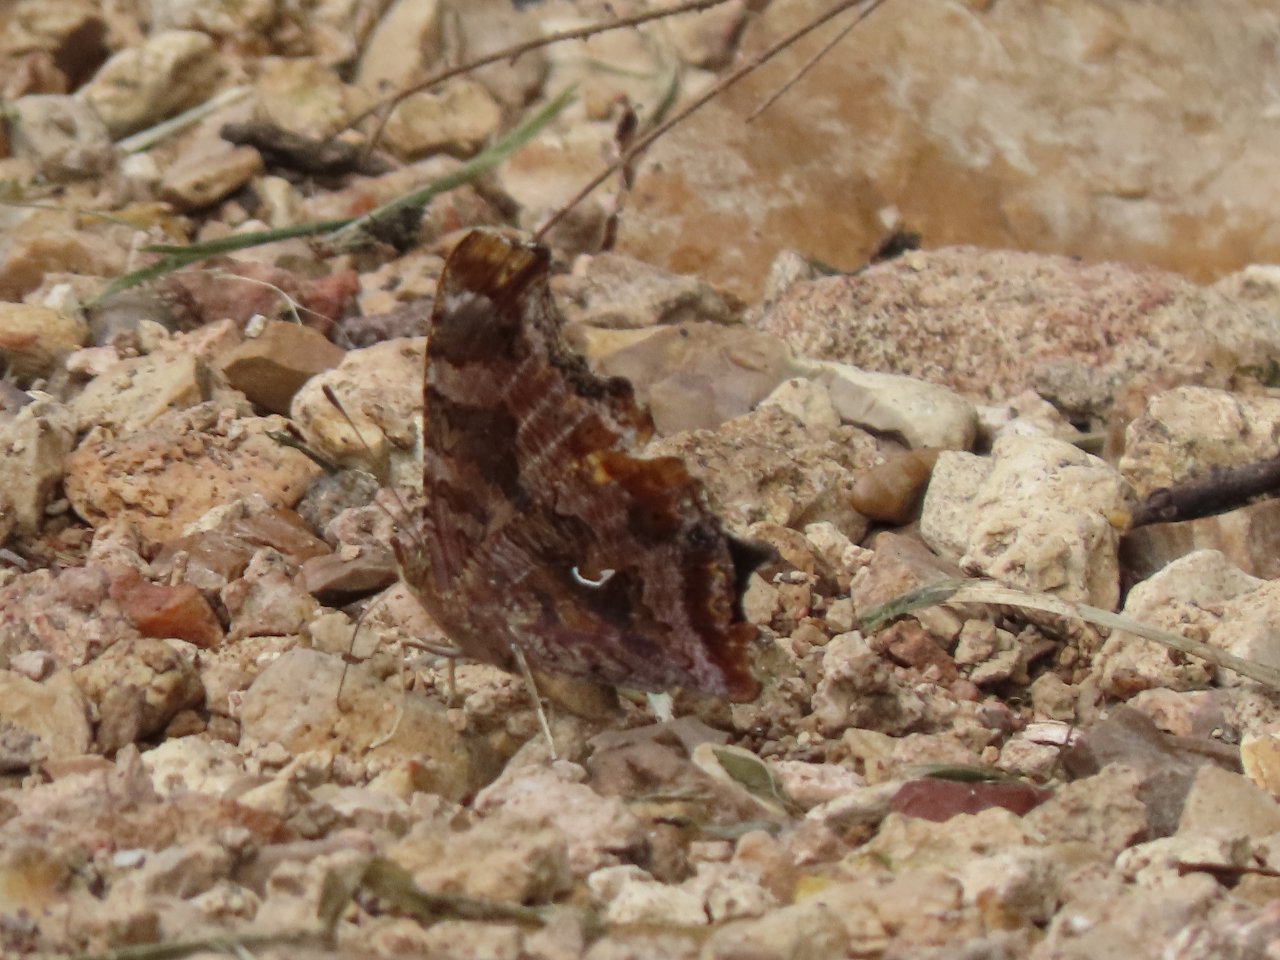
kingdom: Animalia
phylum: Arthropoda
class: Insecta
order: Lepidoptera
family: Nymphalidae
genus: Polygonia
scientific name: Polygonia comma
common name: Eastern Comma
